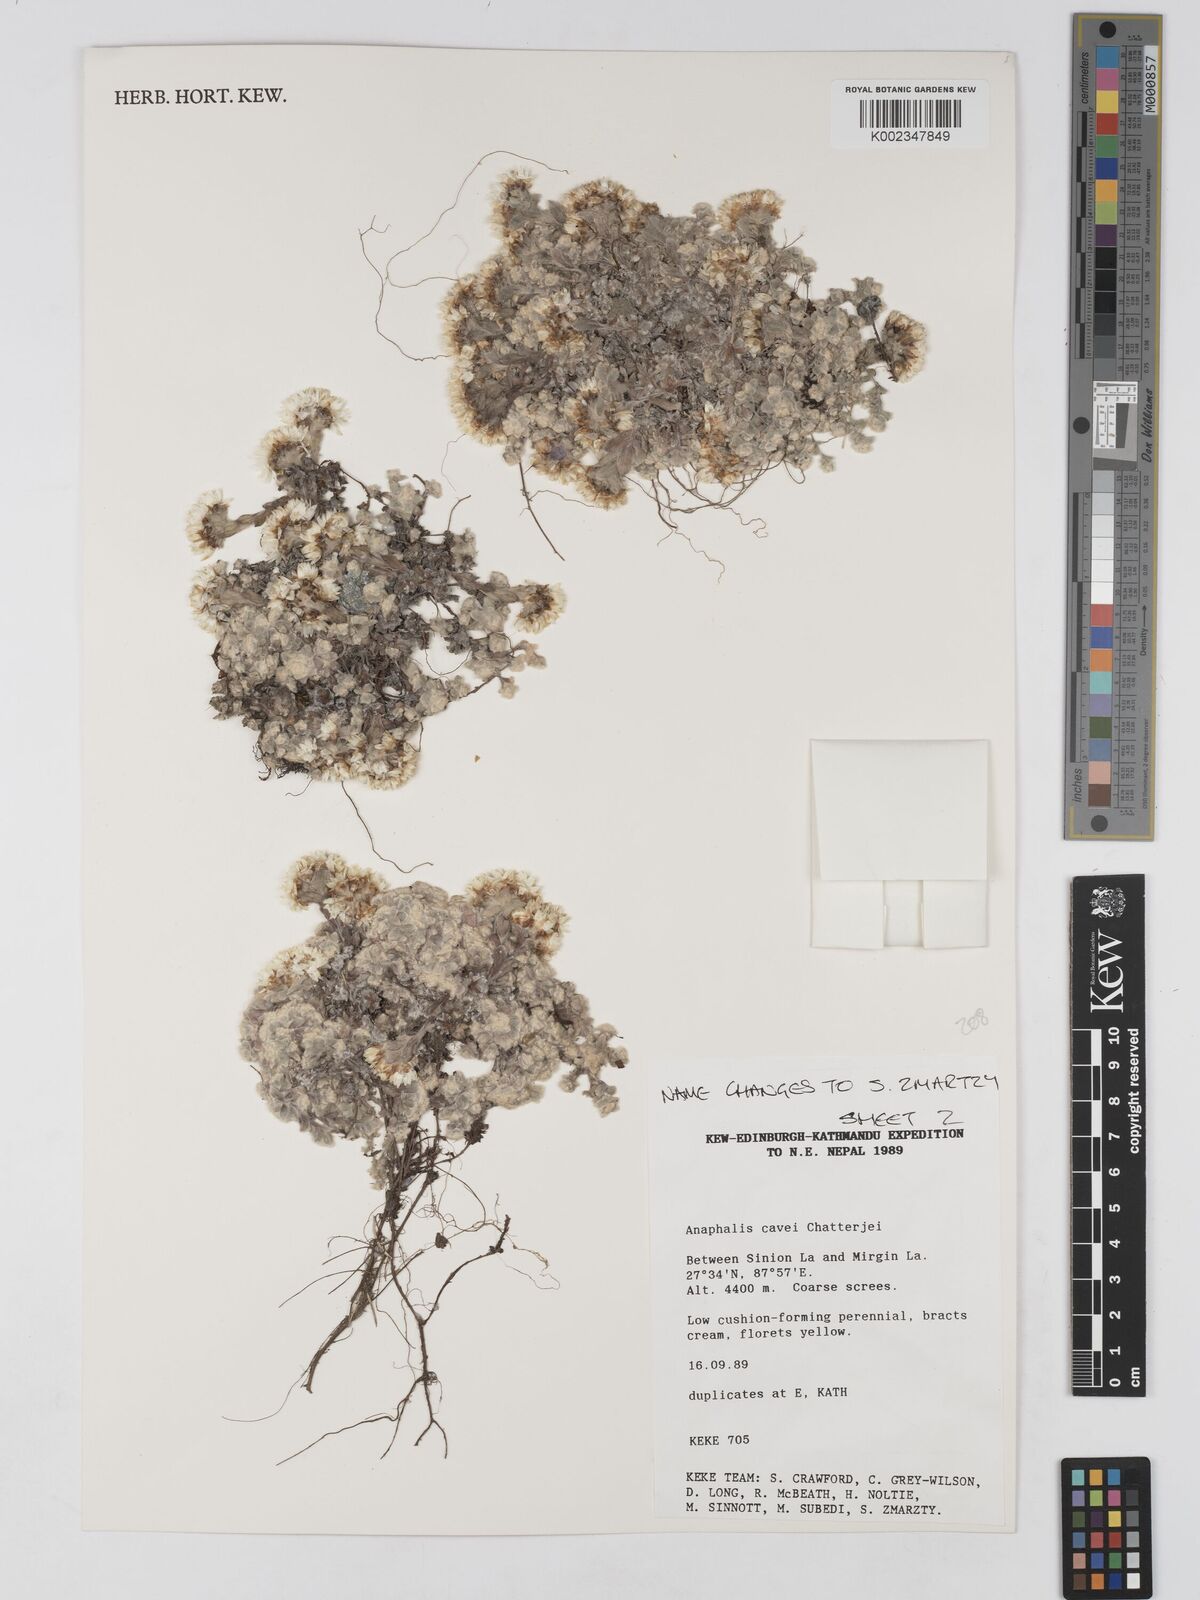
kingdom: Plantae
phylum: Tracheophyta
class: Magnoliopsida
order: Asterales
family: Asteraceae
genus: Anaphalis
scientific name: Anaphalis cavei
